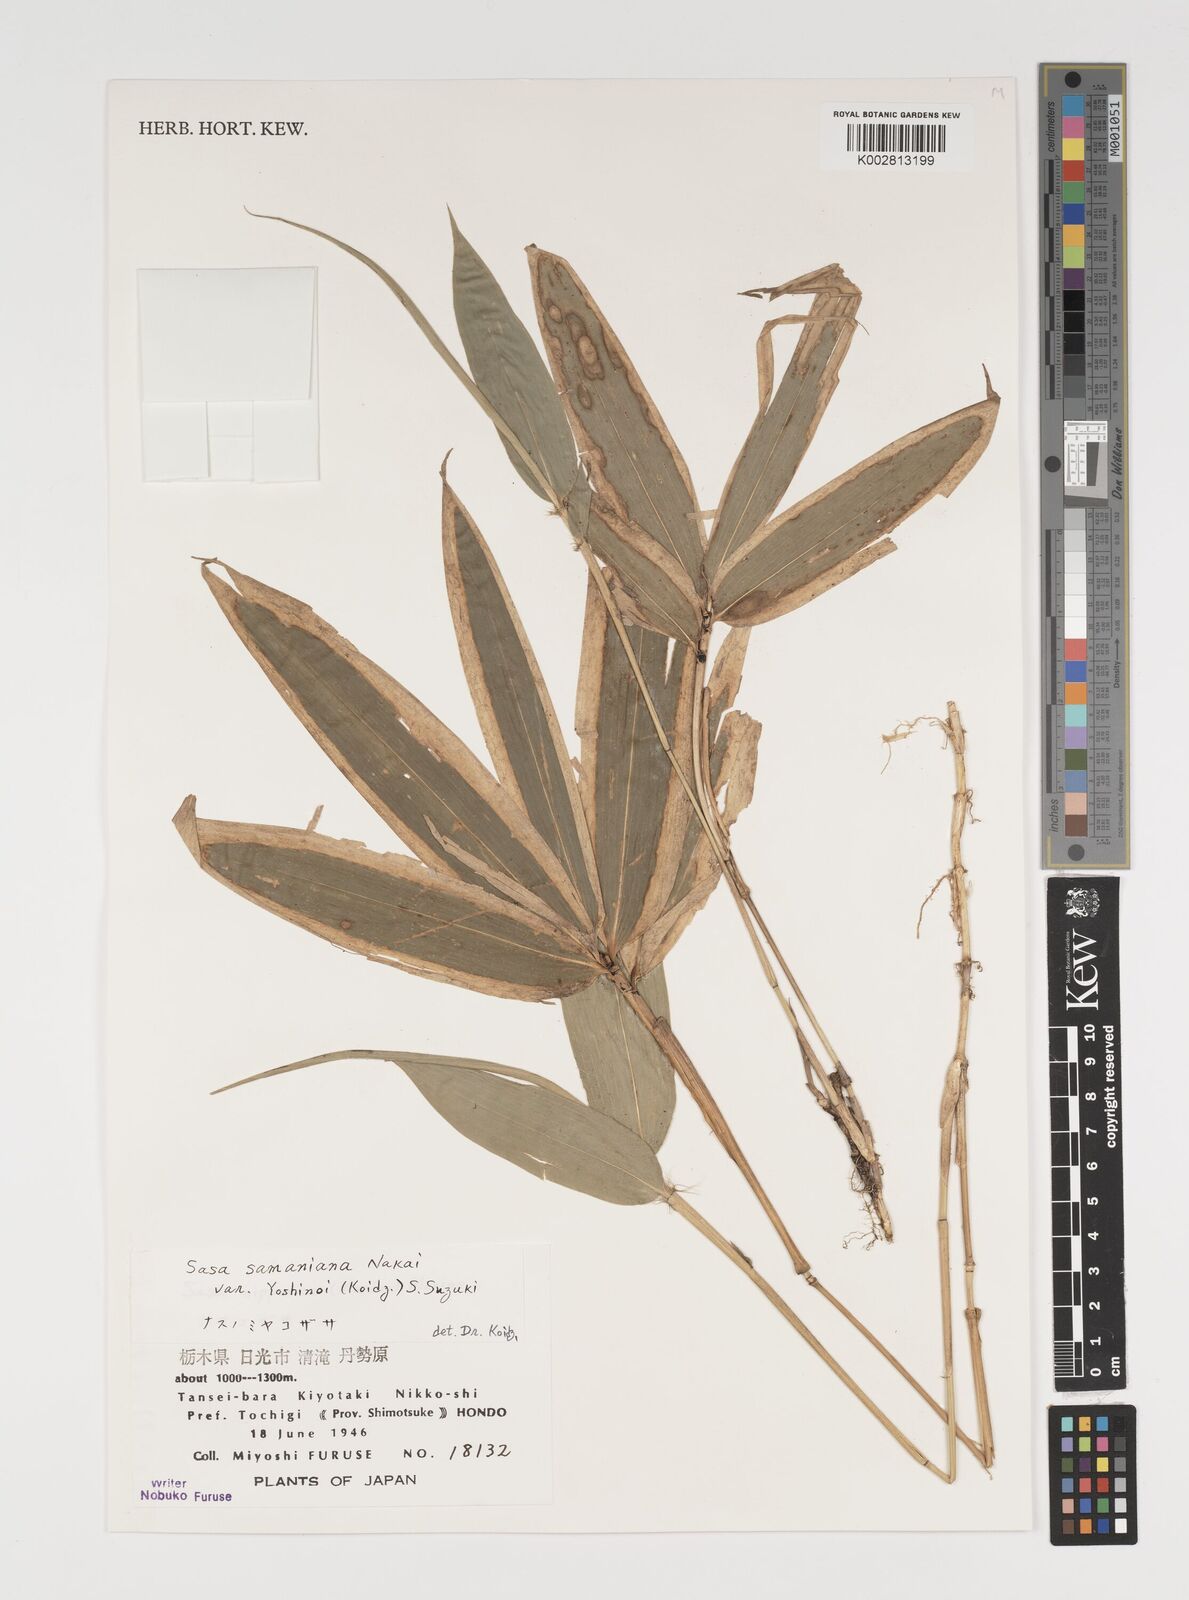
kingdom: Plantae
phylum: Tracheophyta
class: Liliopsida
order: Poales
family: Poaceae
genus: Sasa
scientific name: Sasa samaniana
